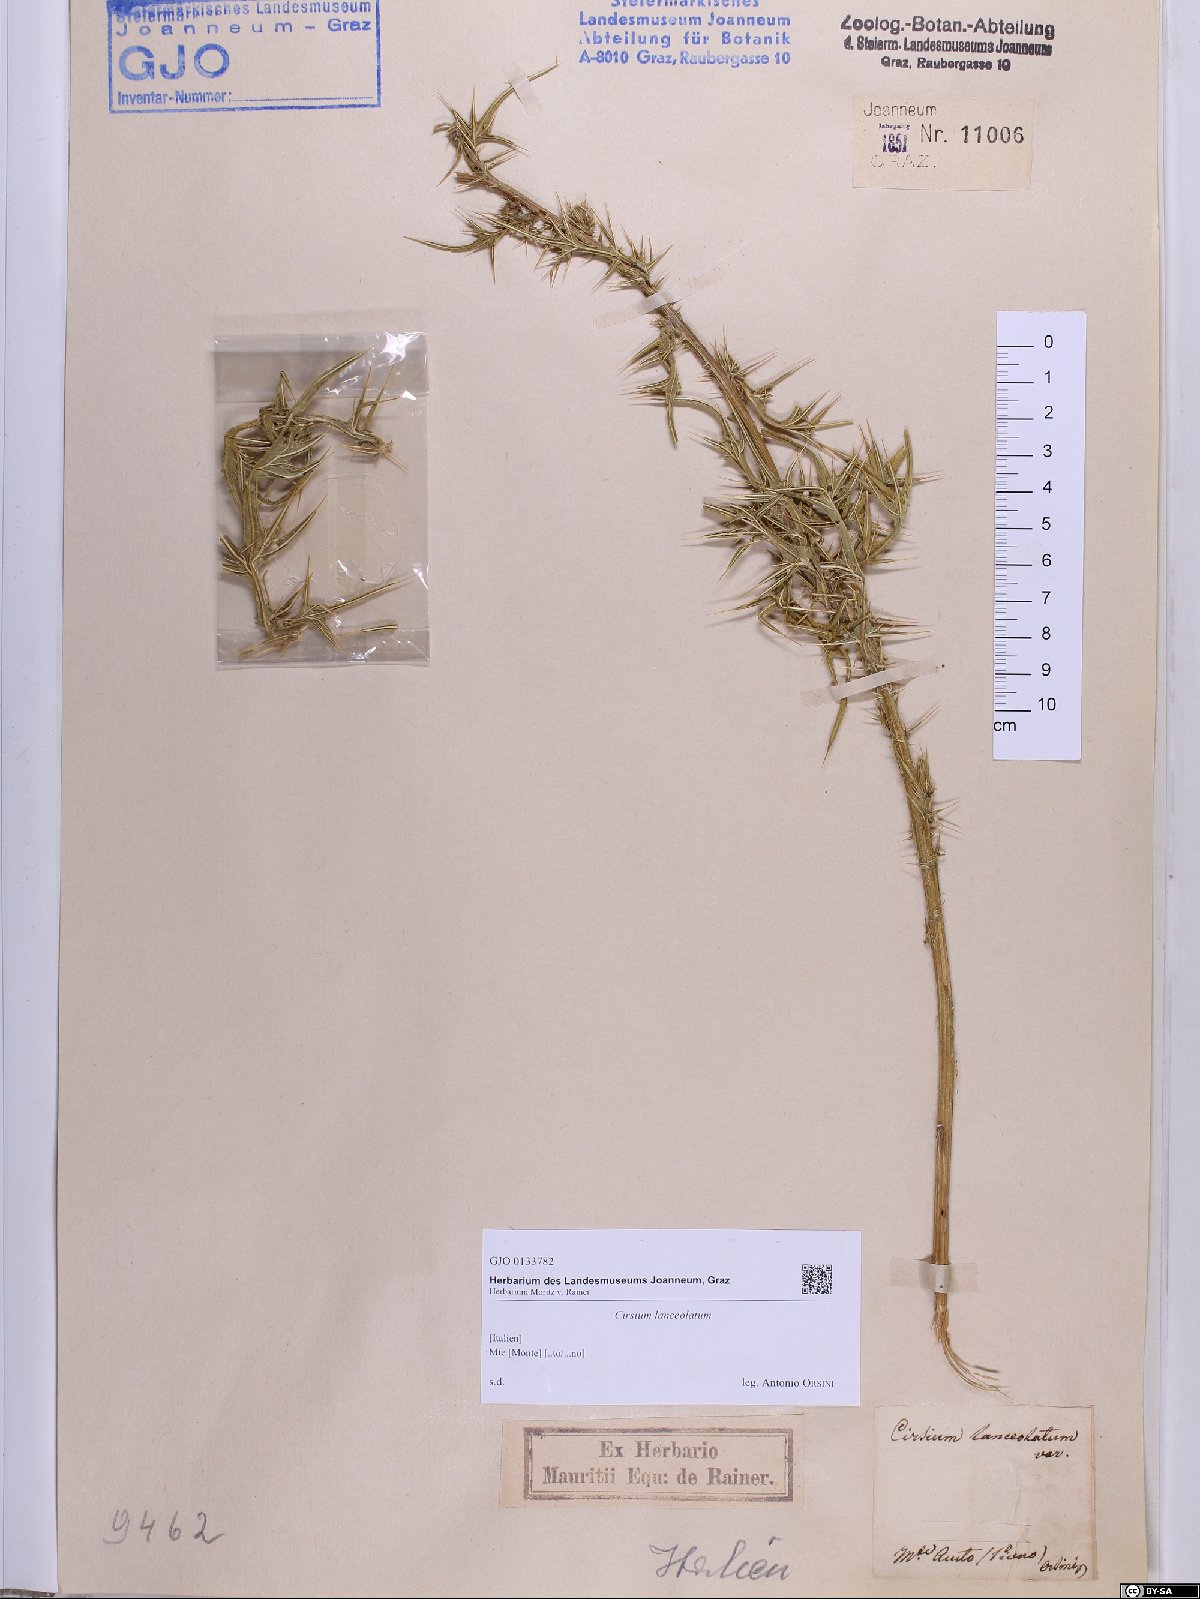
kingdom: Plantae
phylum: Tracheophyta
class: Magnoliopsida
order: Asterales
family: Asteraceae
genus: Cirsium
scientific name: Cirsium vulgare
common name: Bull thistle
